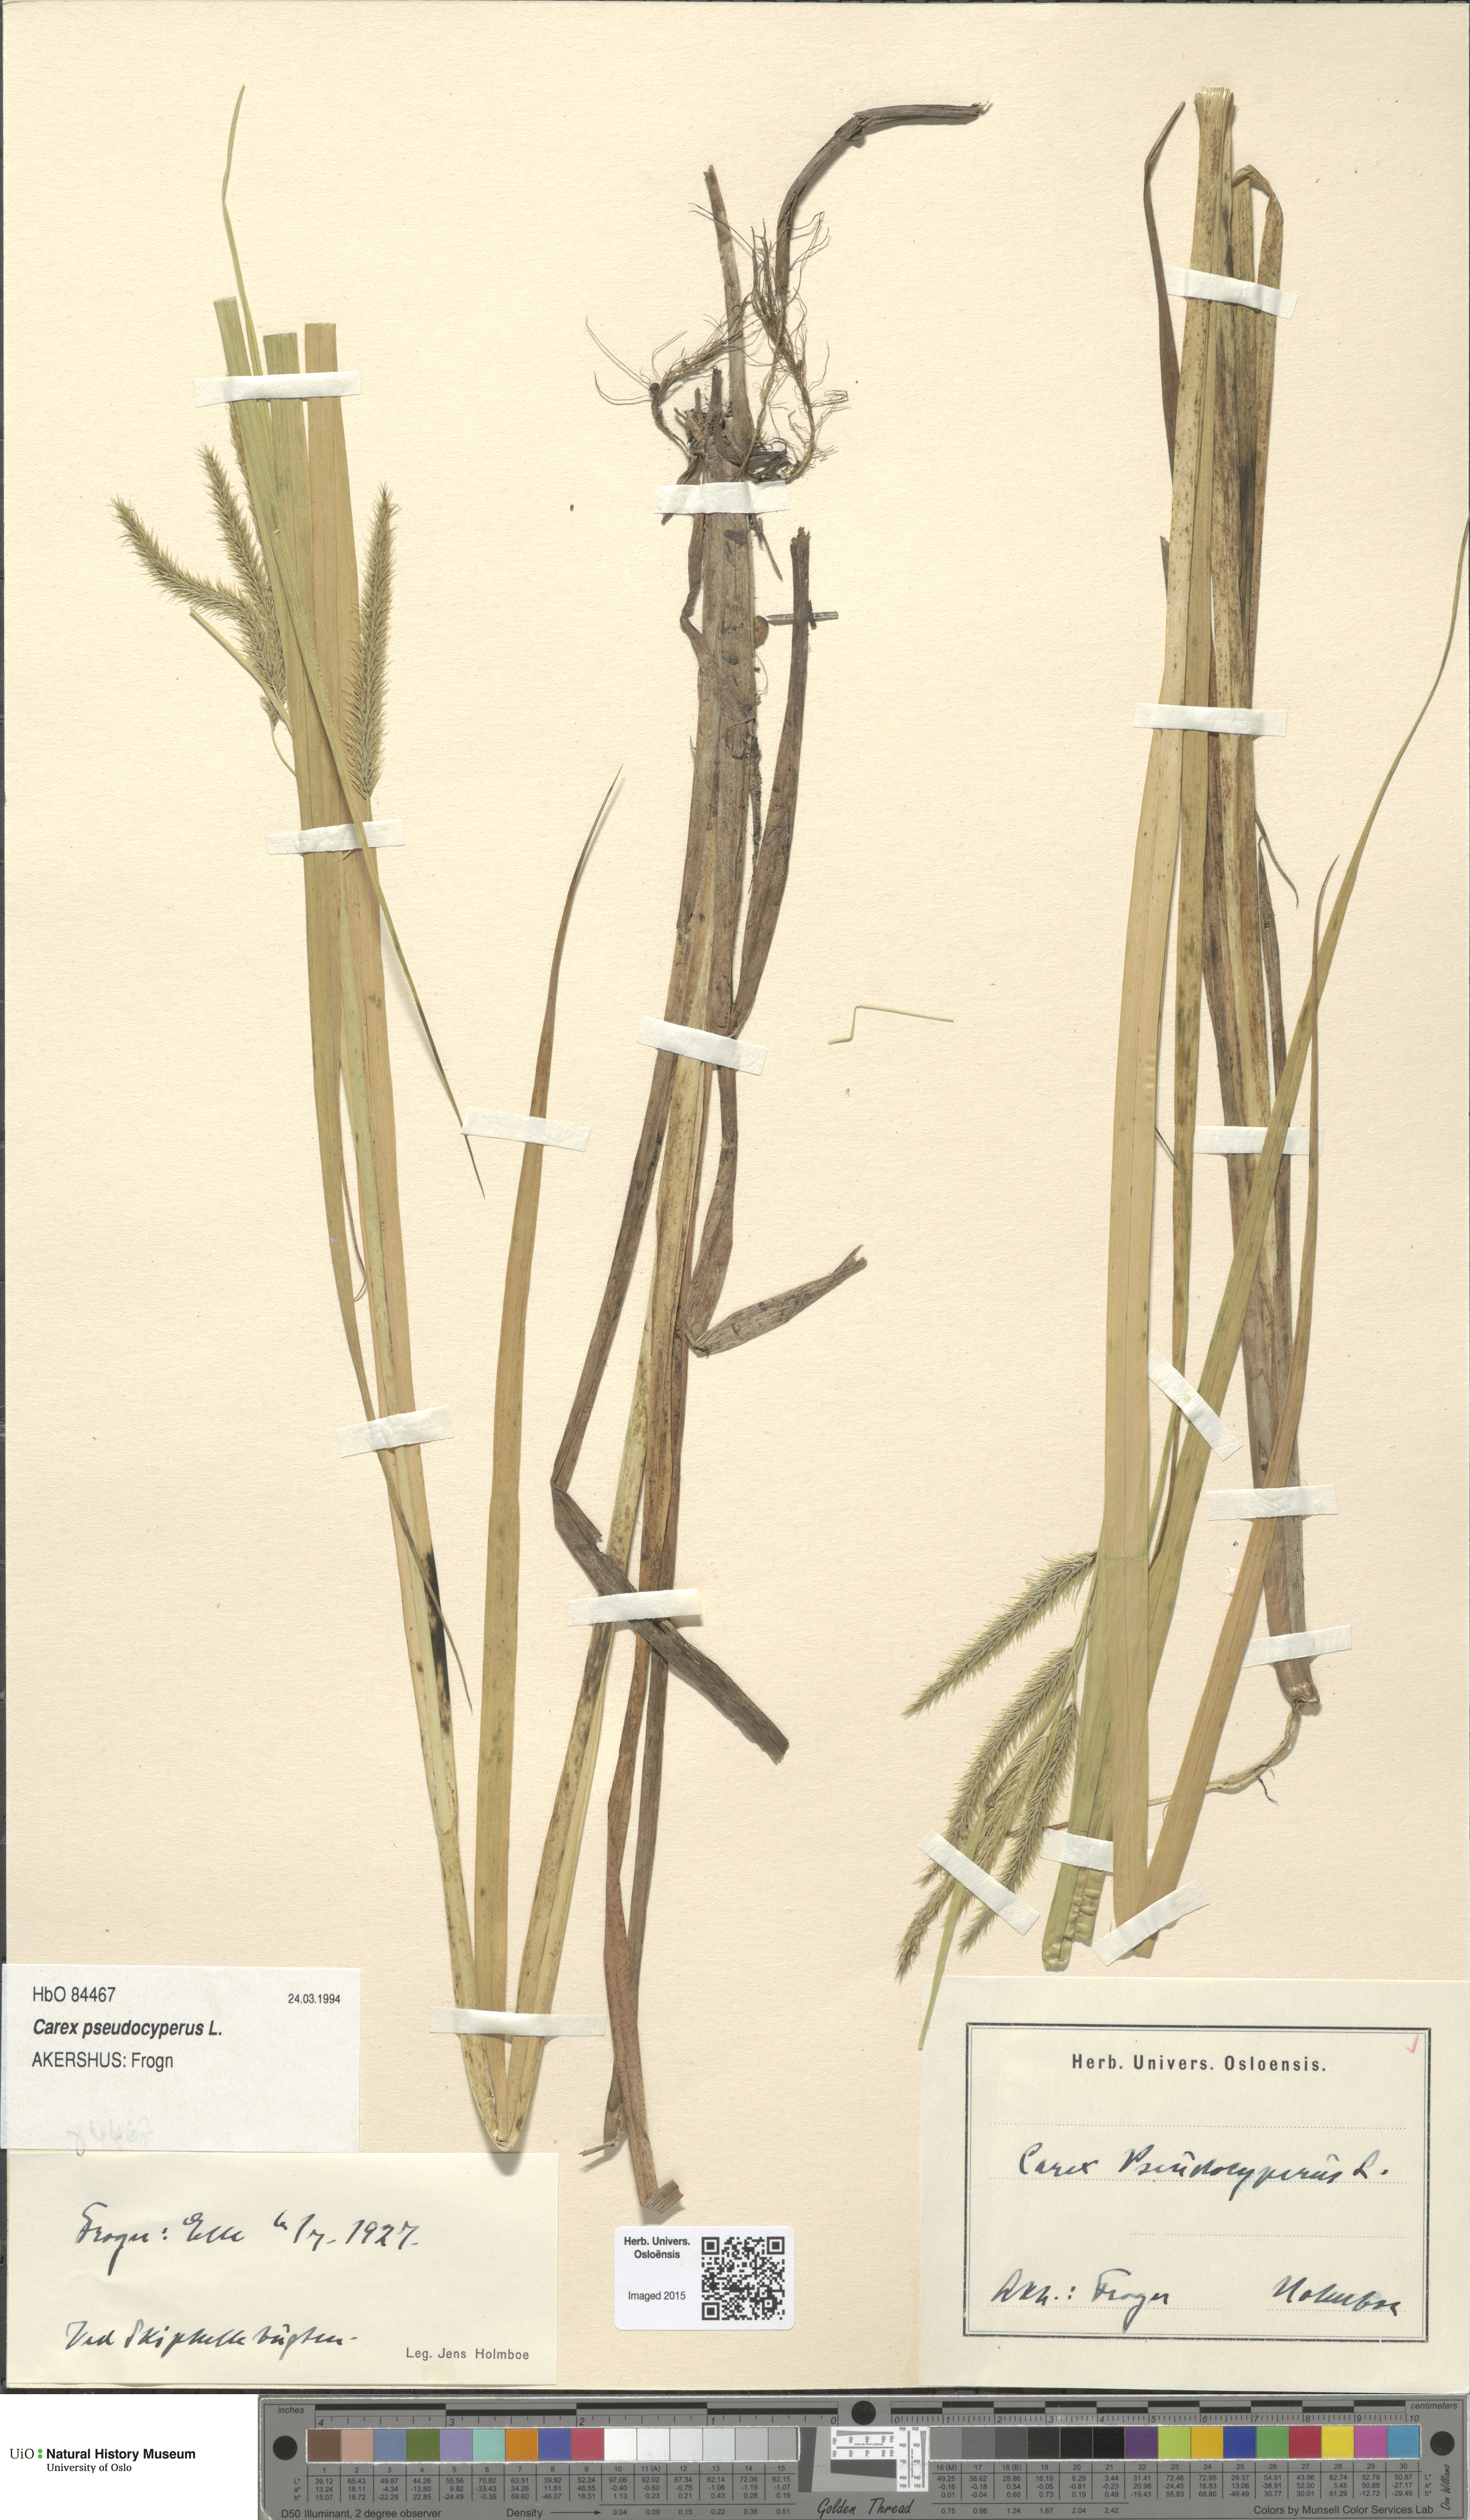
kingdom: Plantae
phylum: Tracheophyta
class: Liliopsida
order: Poales
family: Cyperaceae
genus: Carex
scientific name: Carex pseudocyperus
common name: Cyperus sedge
